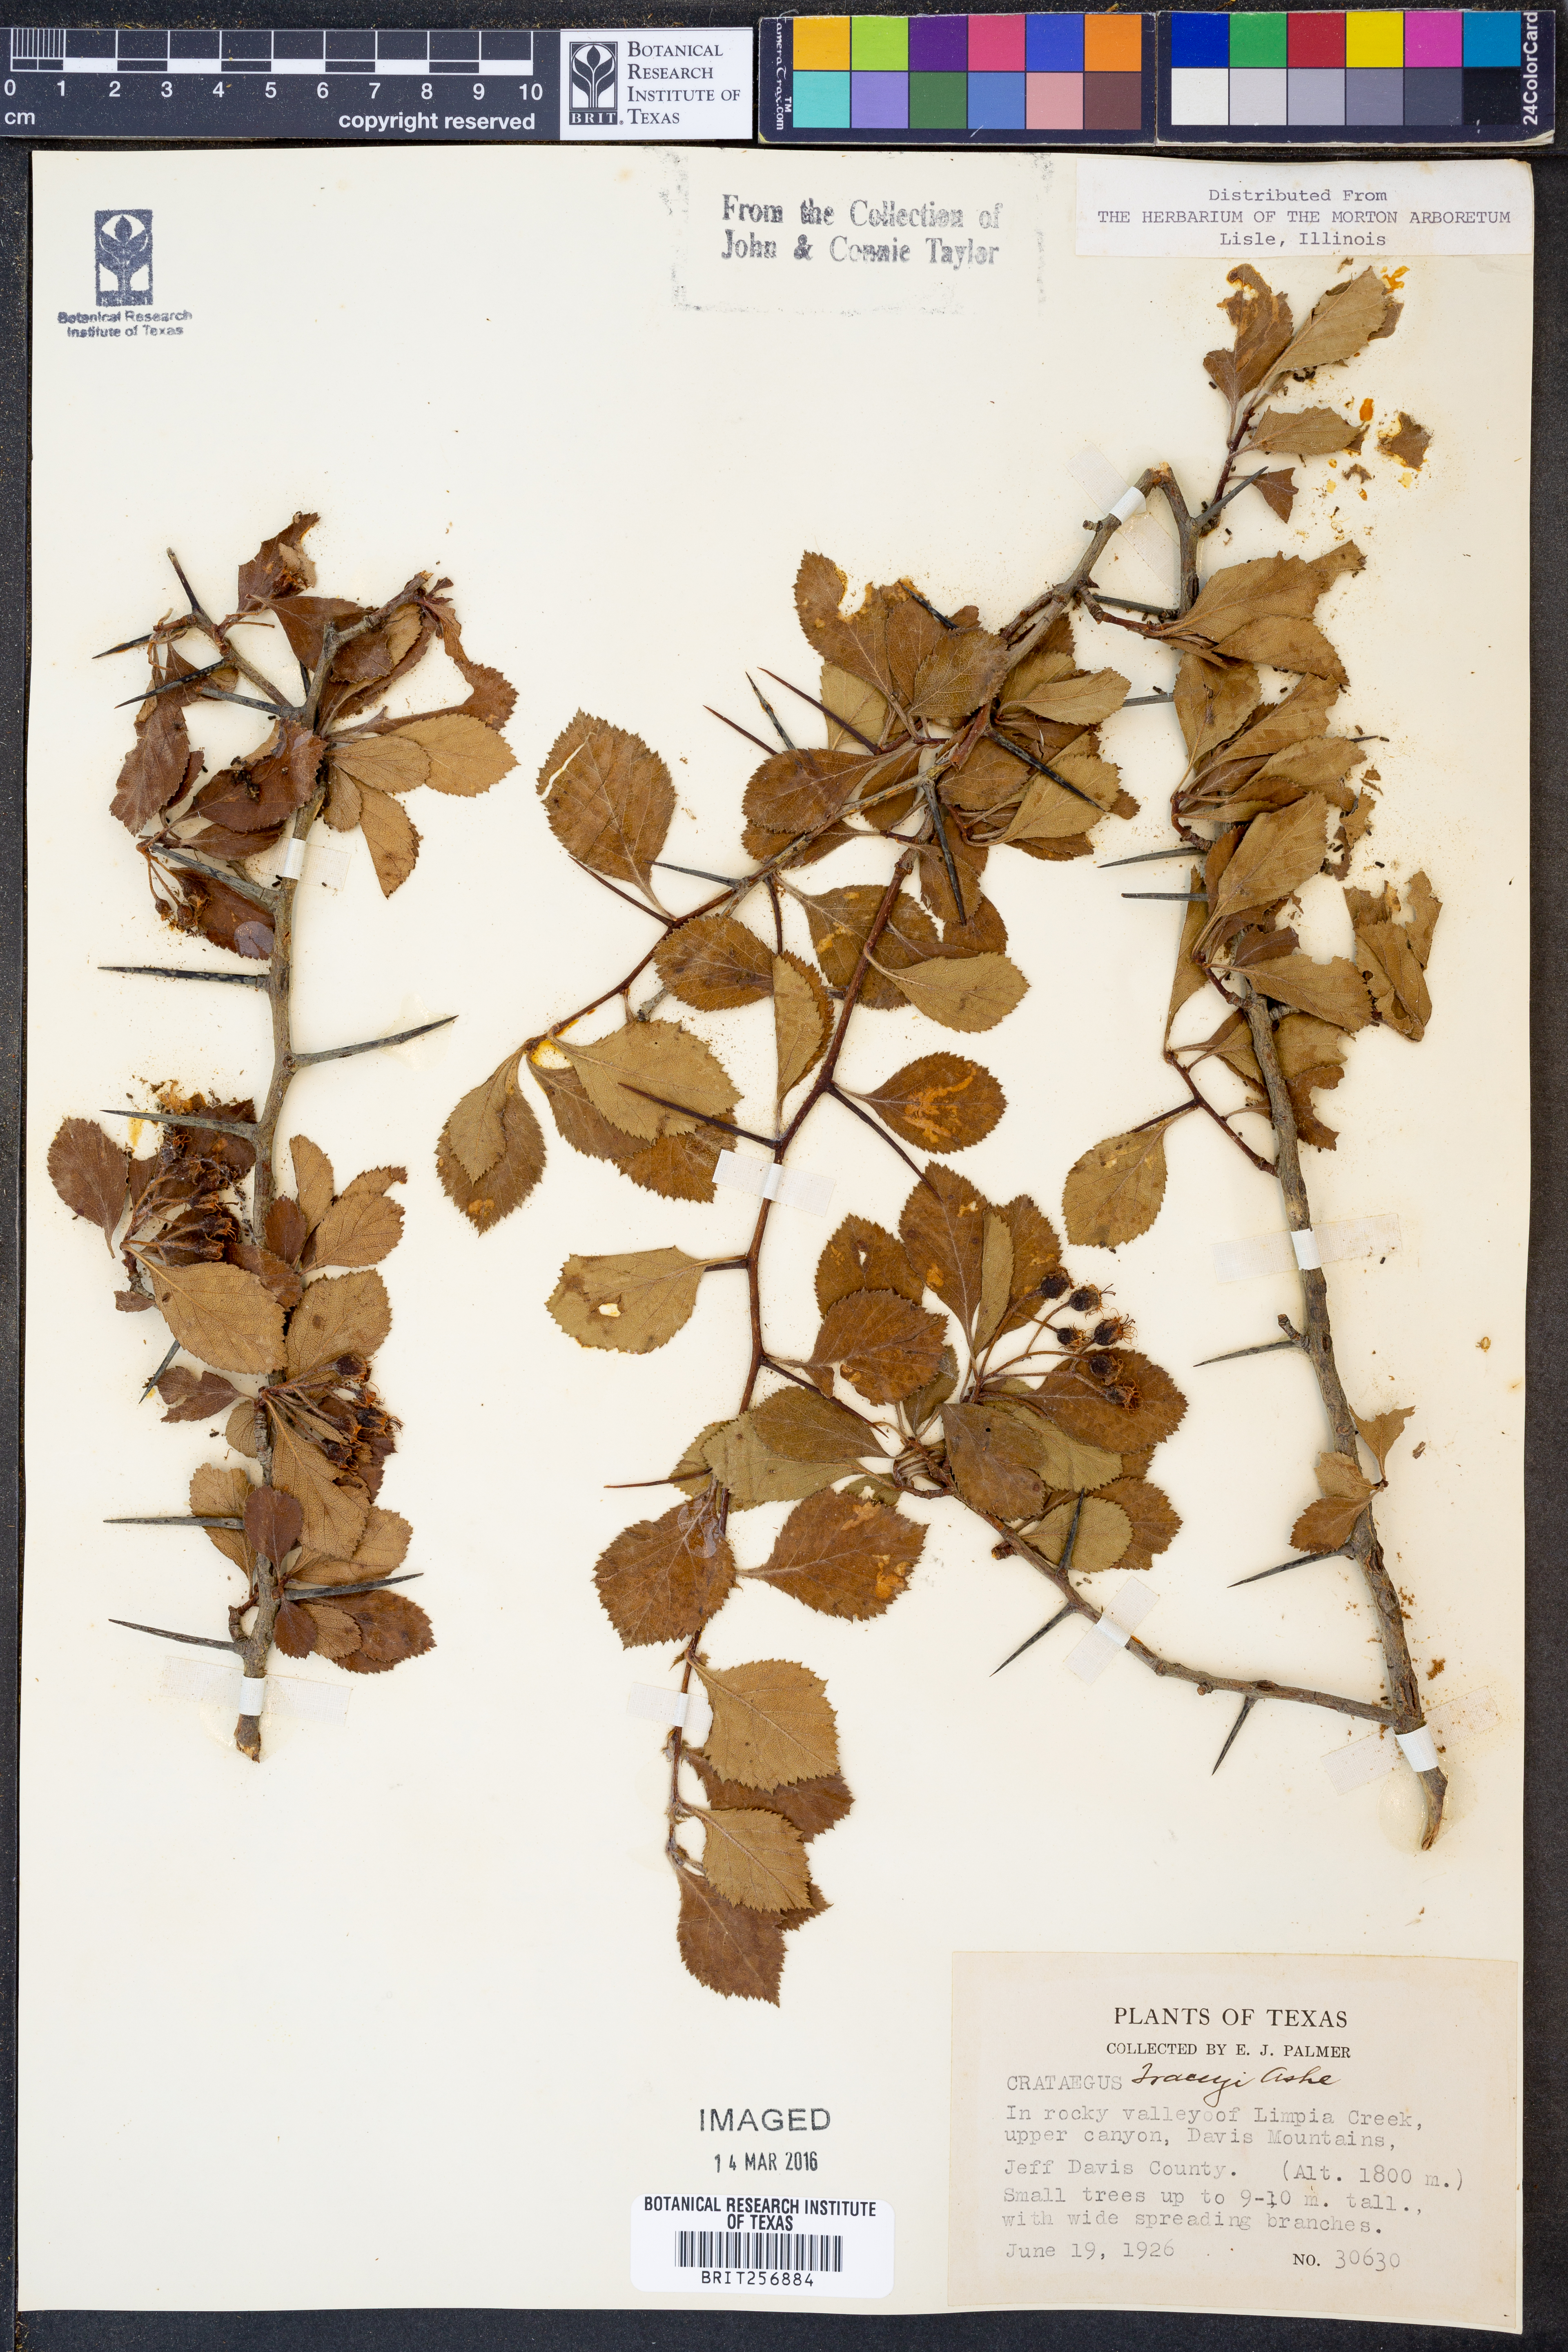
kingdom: Plantae
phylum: Tracheophyta
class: Magnoliopsida
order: Rosales
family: Rosaceae
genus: Crataegus
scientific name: Crataegus tracyi
